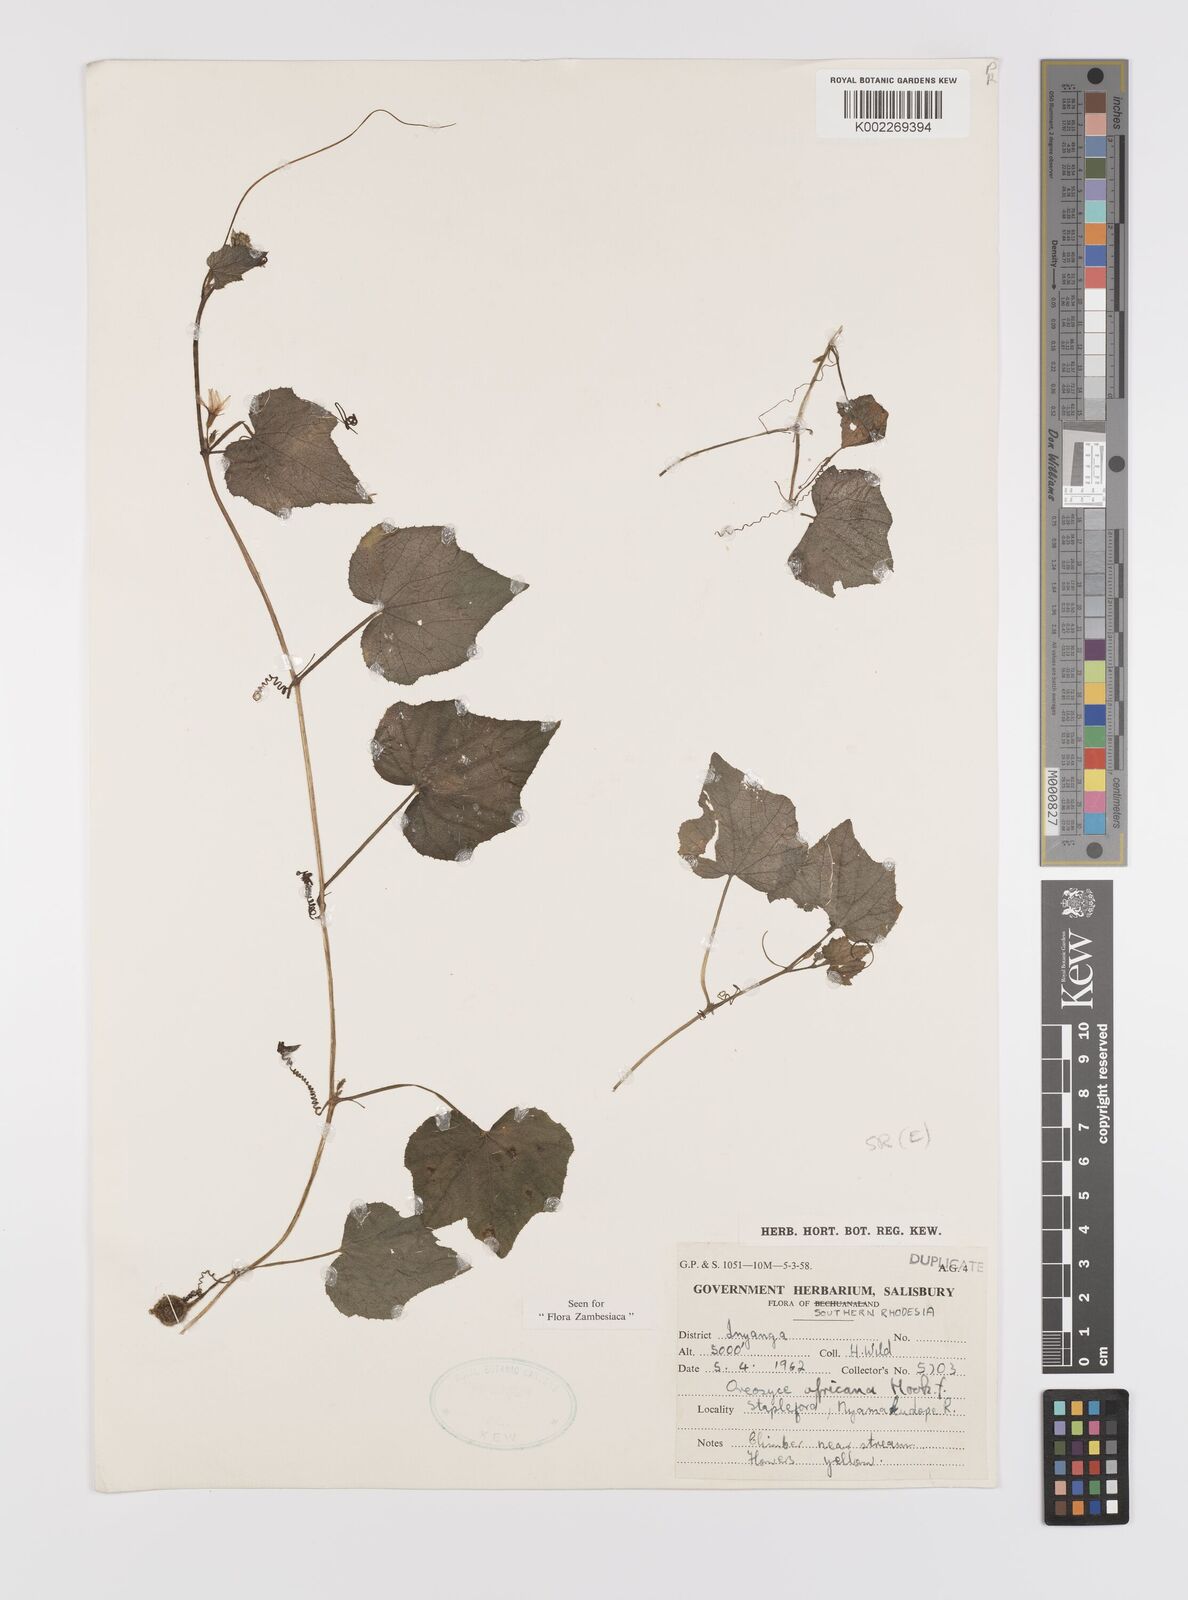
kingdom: Plantae
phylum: Tracheophyta
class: Magnoliopsida
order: Cucurbitales
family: Cucurbitaceae
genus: Cucumis
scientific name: Cucumis oreosyce
